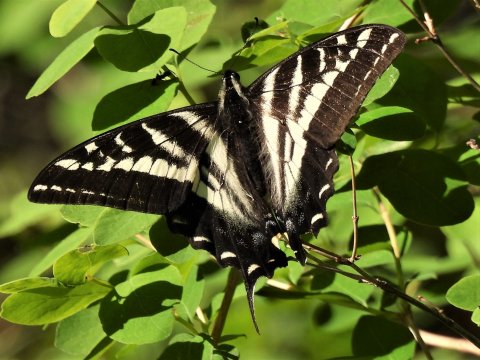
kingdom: Animalia
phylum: Arthropoda
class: Insecta
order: Lepidoptera
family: Papilionidae
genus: Pterourus
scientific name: Pterourus eurymedon
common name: Pale Swallowtail
